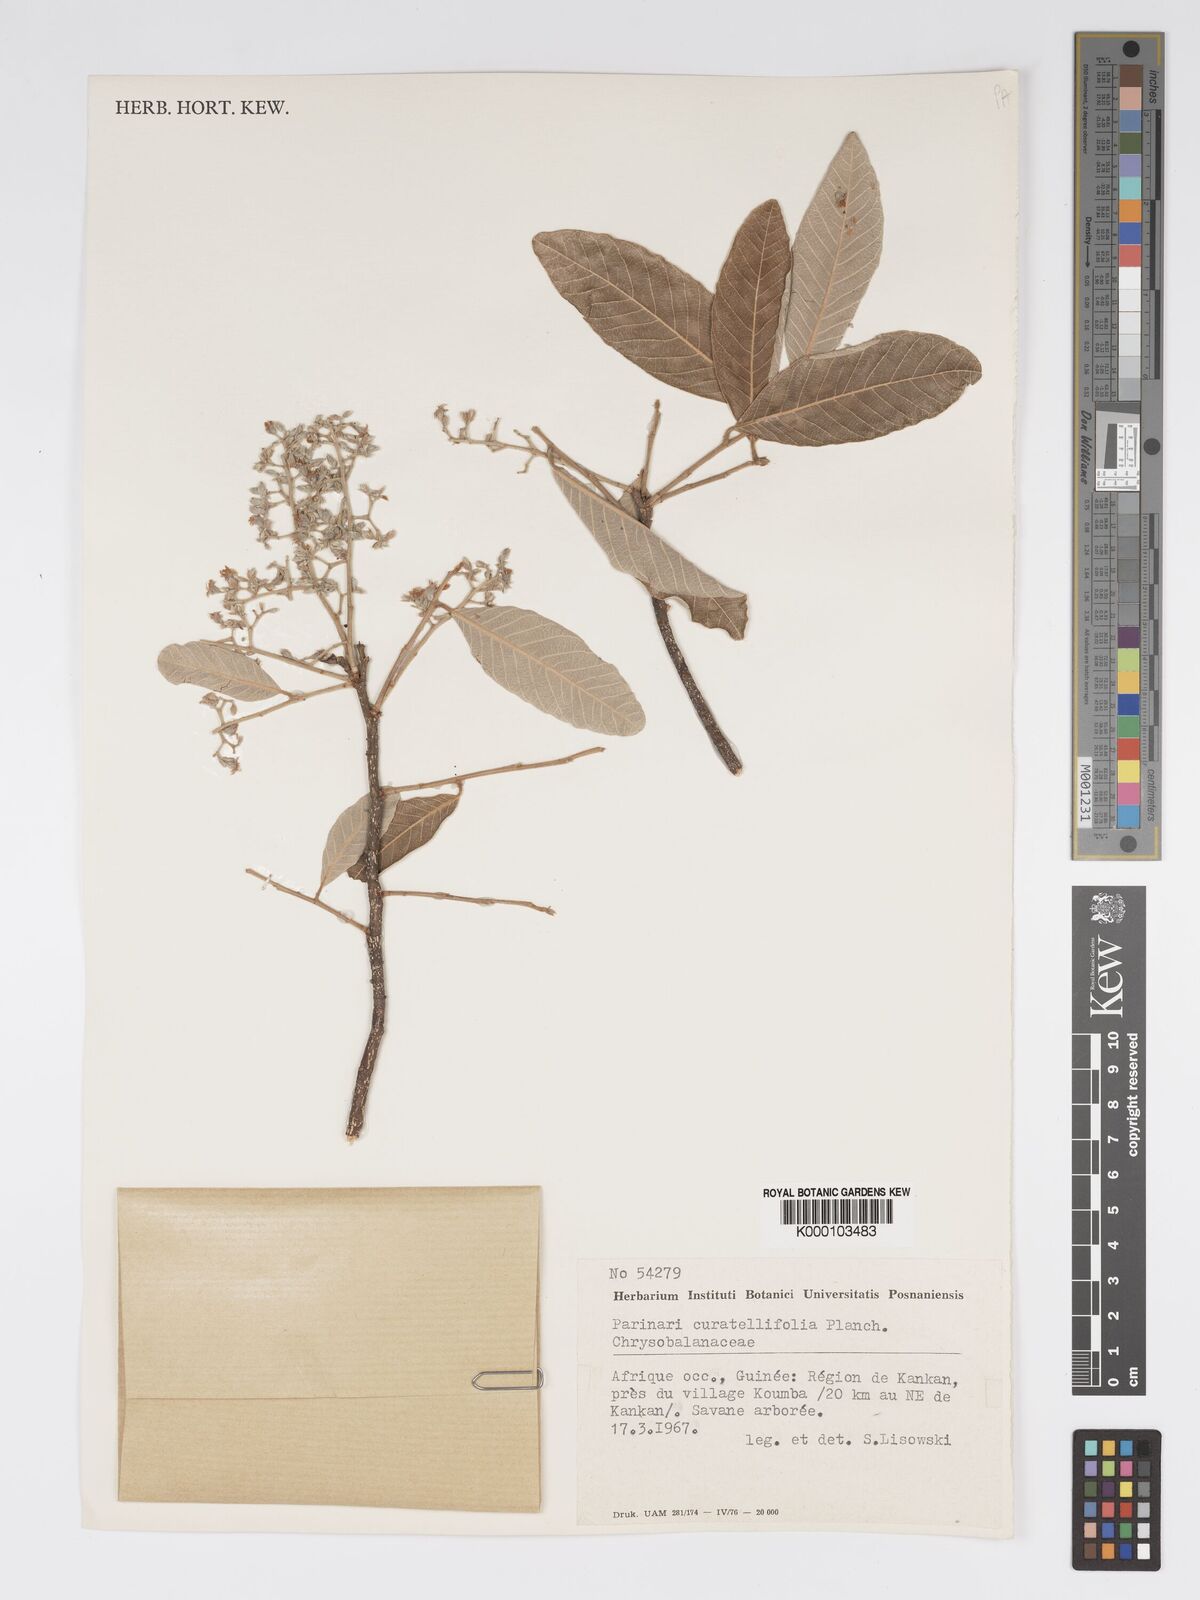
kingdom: Plantae
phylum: Tracheophyta
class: Magnoliopsida
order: Malpighiales
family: Chrysobalanaceae
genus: Parinari
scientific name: Parinari curatellifolia
